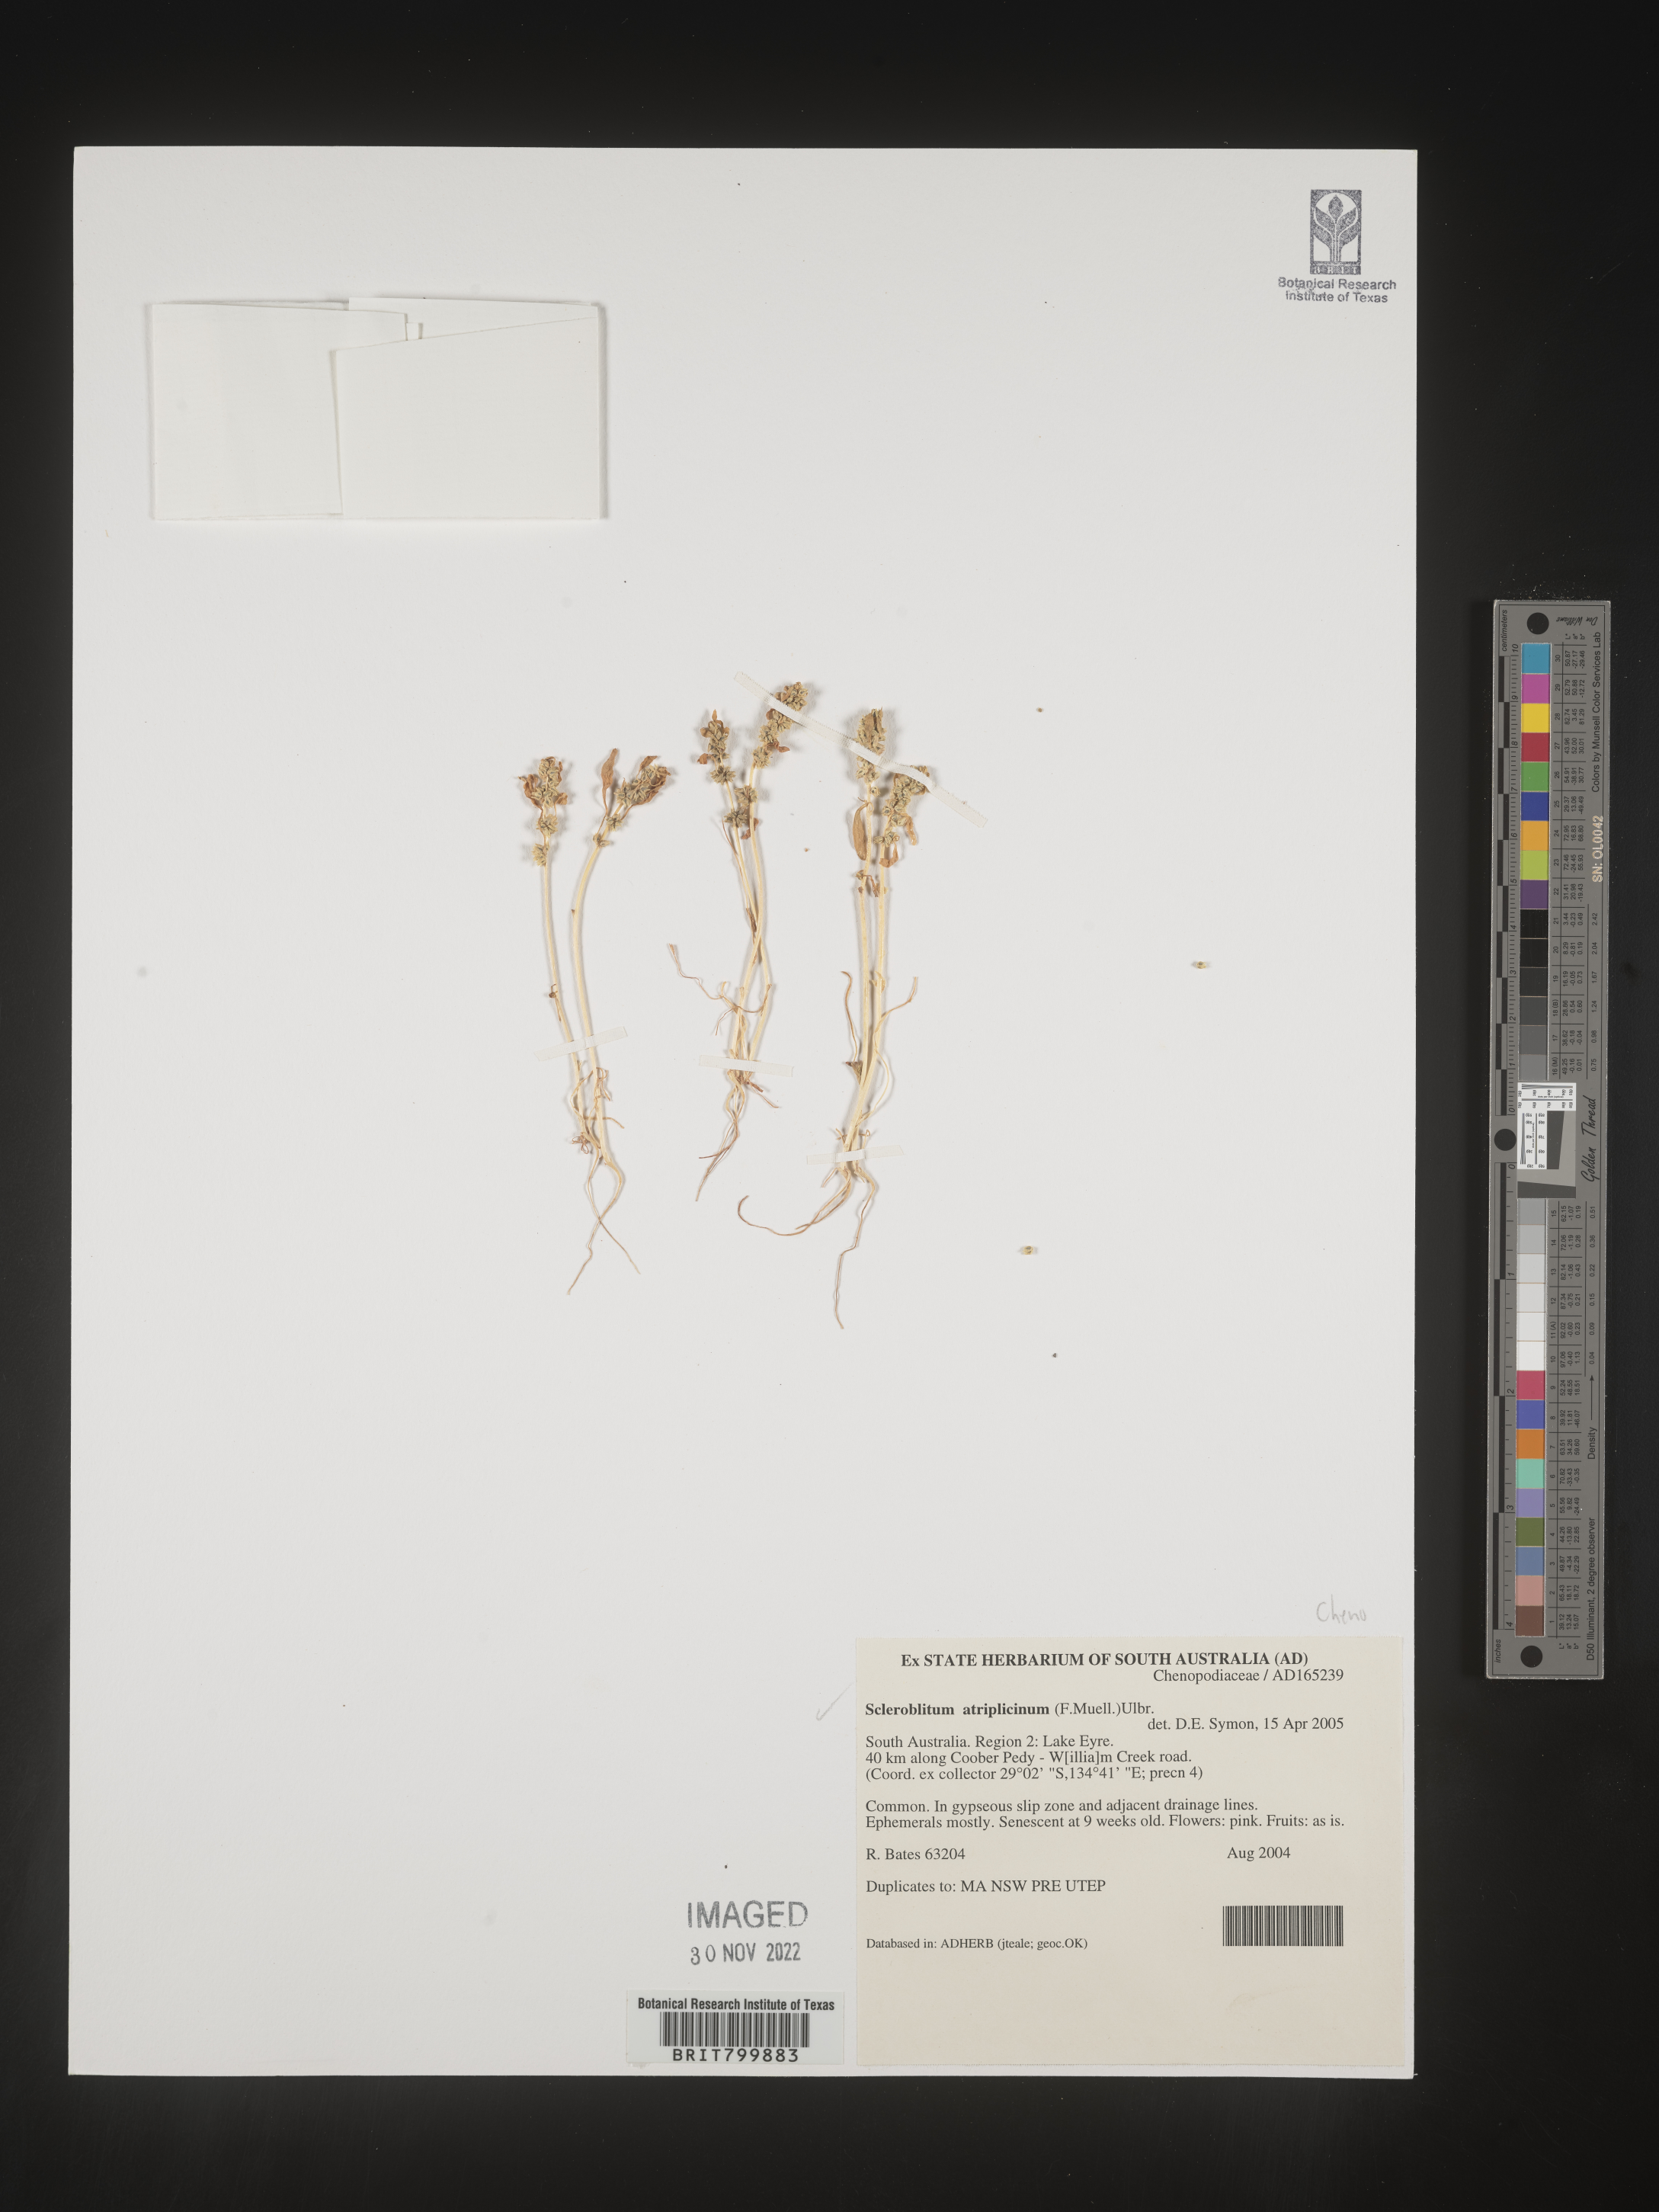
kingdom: Plantae
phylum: Tracheophyta
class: Magnoliopsida
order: Caryophyllales
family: Amaranthaceae
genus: Blitum
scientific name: Blitum atriplicinum
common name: Starry-goosefoot
